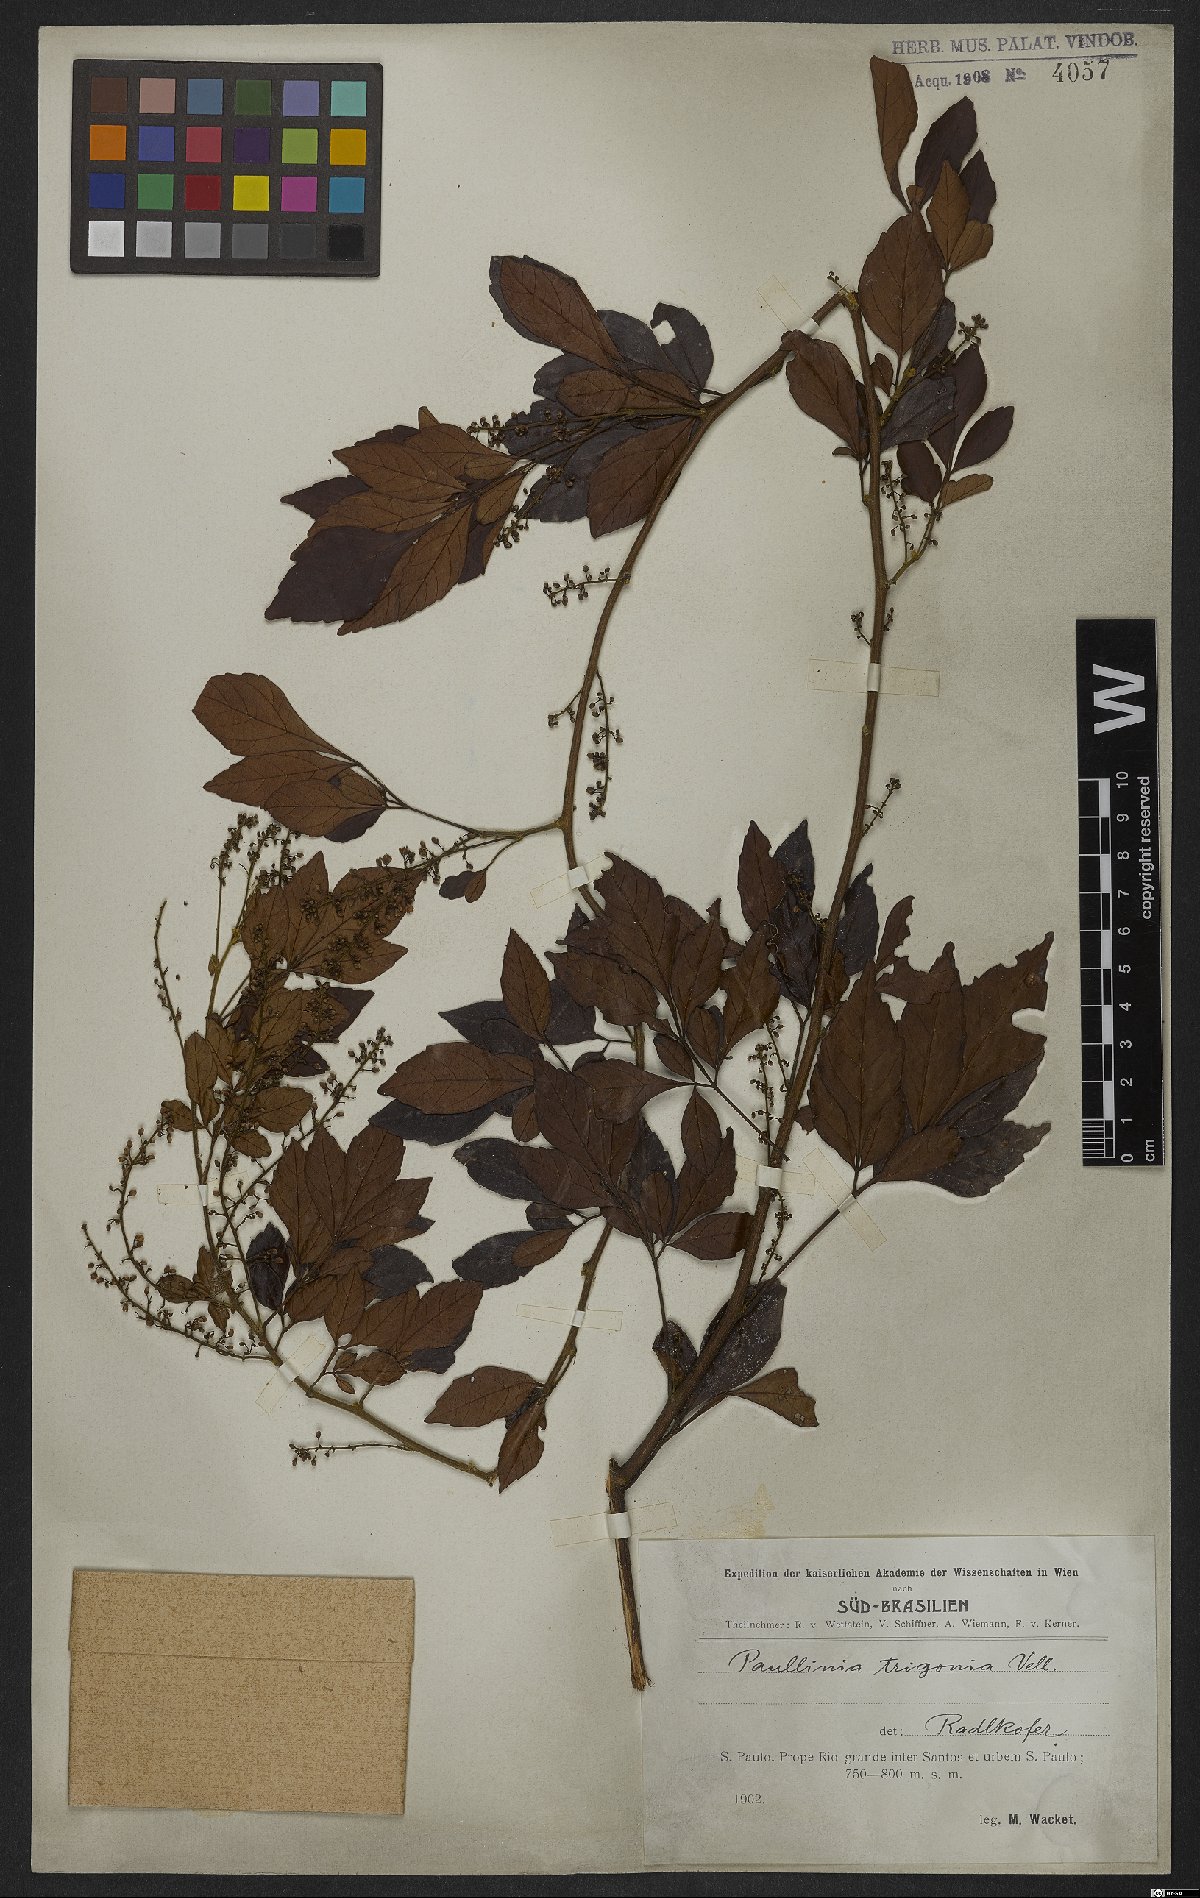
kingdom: Plantae
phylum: Tracheophyta
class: Magnoliopsida
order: Sapindales
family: Sapindaceae
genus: Paullinia
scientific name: Paullinia trigonia
